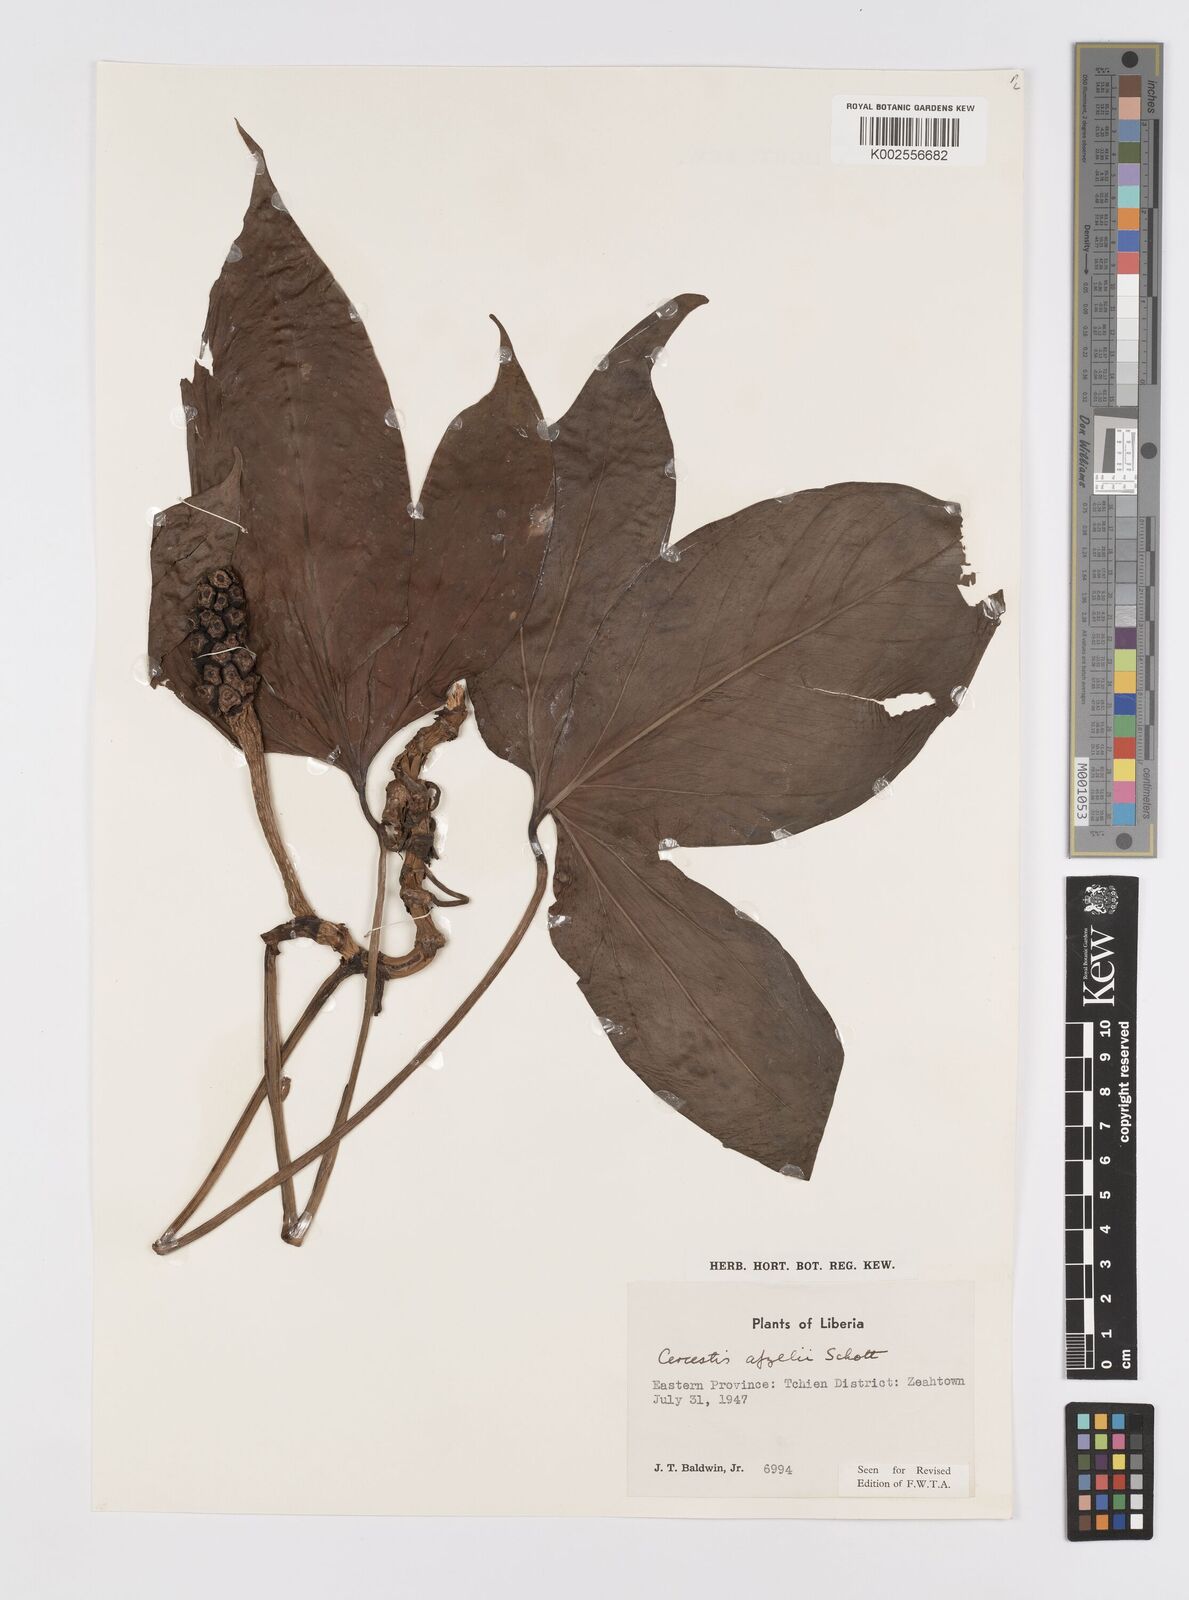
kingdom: Plantae
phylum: Tracheophyta
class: Liliopsida
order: Alismatales
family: Araceae
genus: Cercestis
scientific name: Cercestis afzelii
